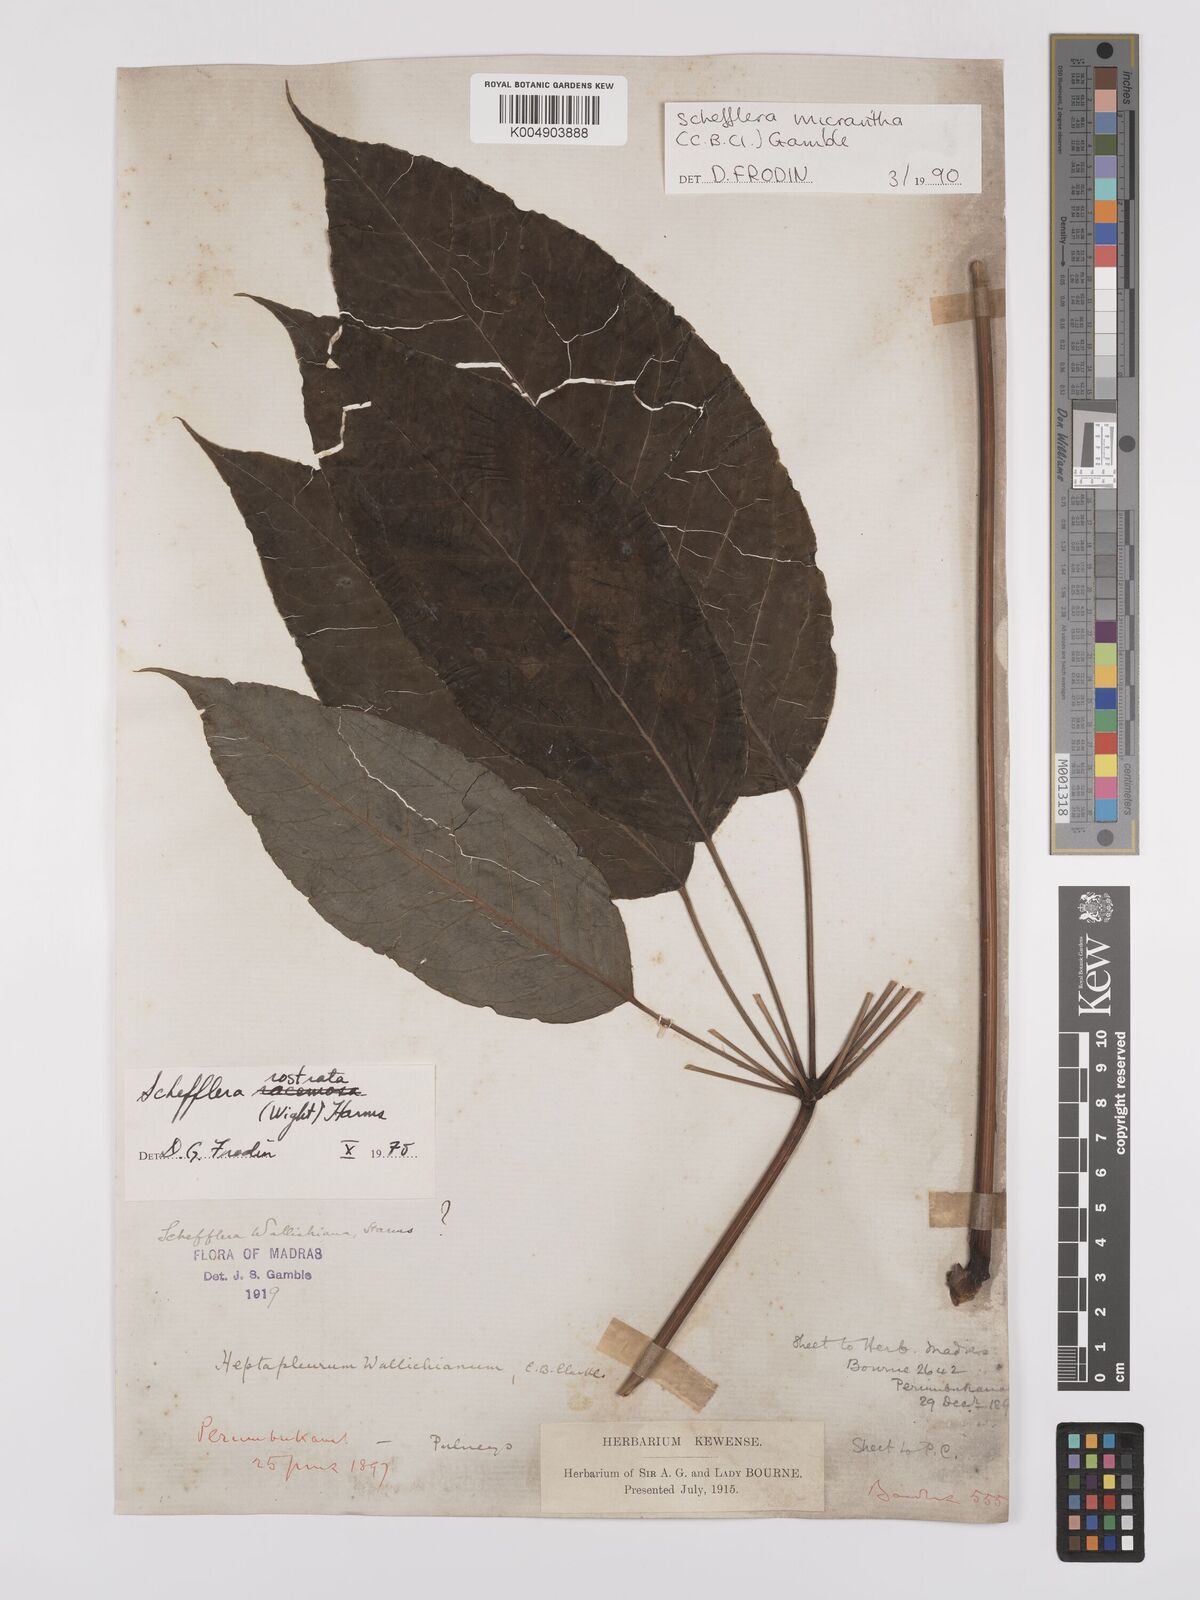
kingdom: Plantae
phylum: Tracheophyta
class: Magnoliopsida
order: Apiales
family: Araliaceae
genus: Heptapleurum
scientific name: Heptapleurum
